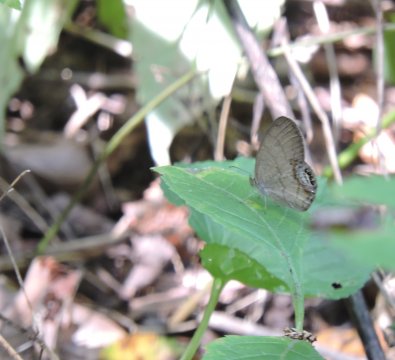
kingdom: Animalia
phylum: Arthropoda
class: Insecta
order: Lepidoptera
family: Nymphalidae
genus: Euptychia
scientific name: Euptychia cornelius
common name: Gemmed Satyr
